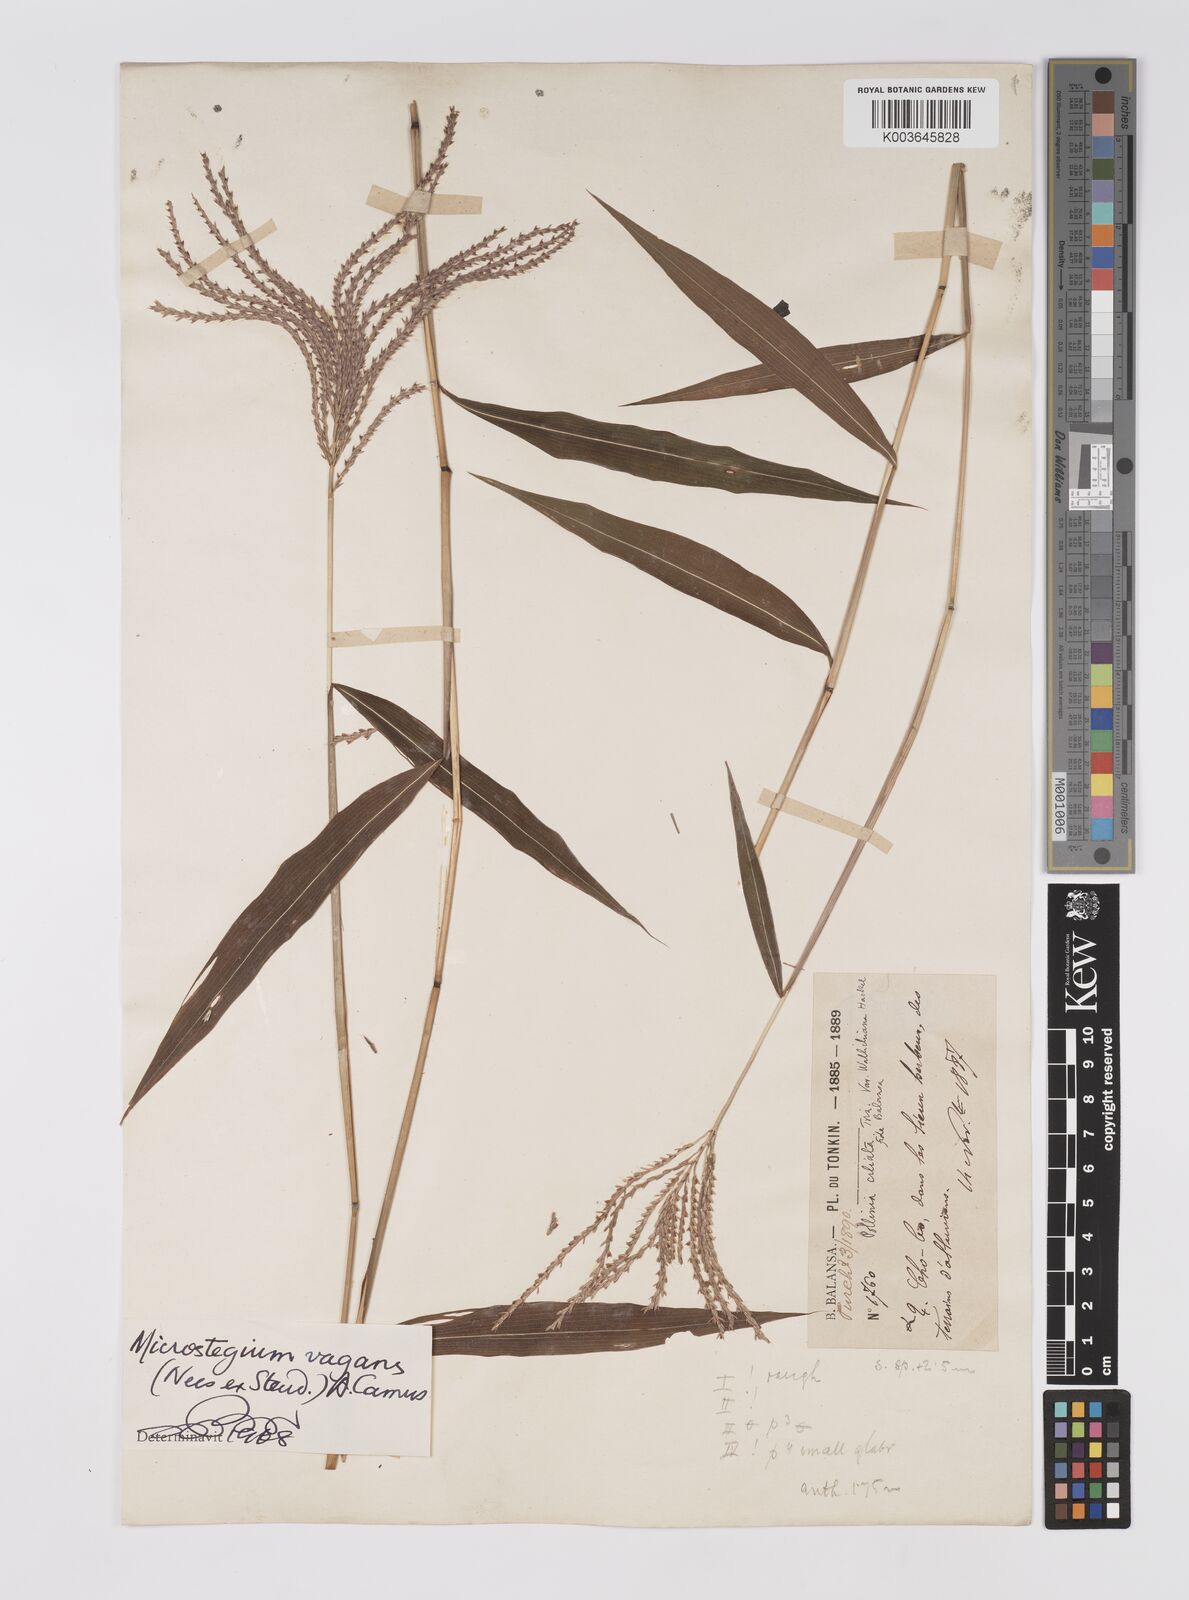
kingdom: Plantae
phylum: Tracheophyta
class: Liliopsida
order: Poales
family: Poaceae
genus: Microstegium
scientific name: Microstegium fasciculatum
